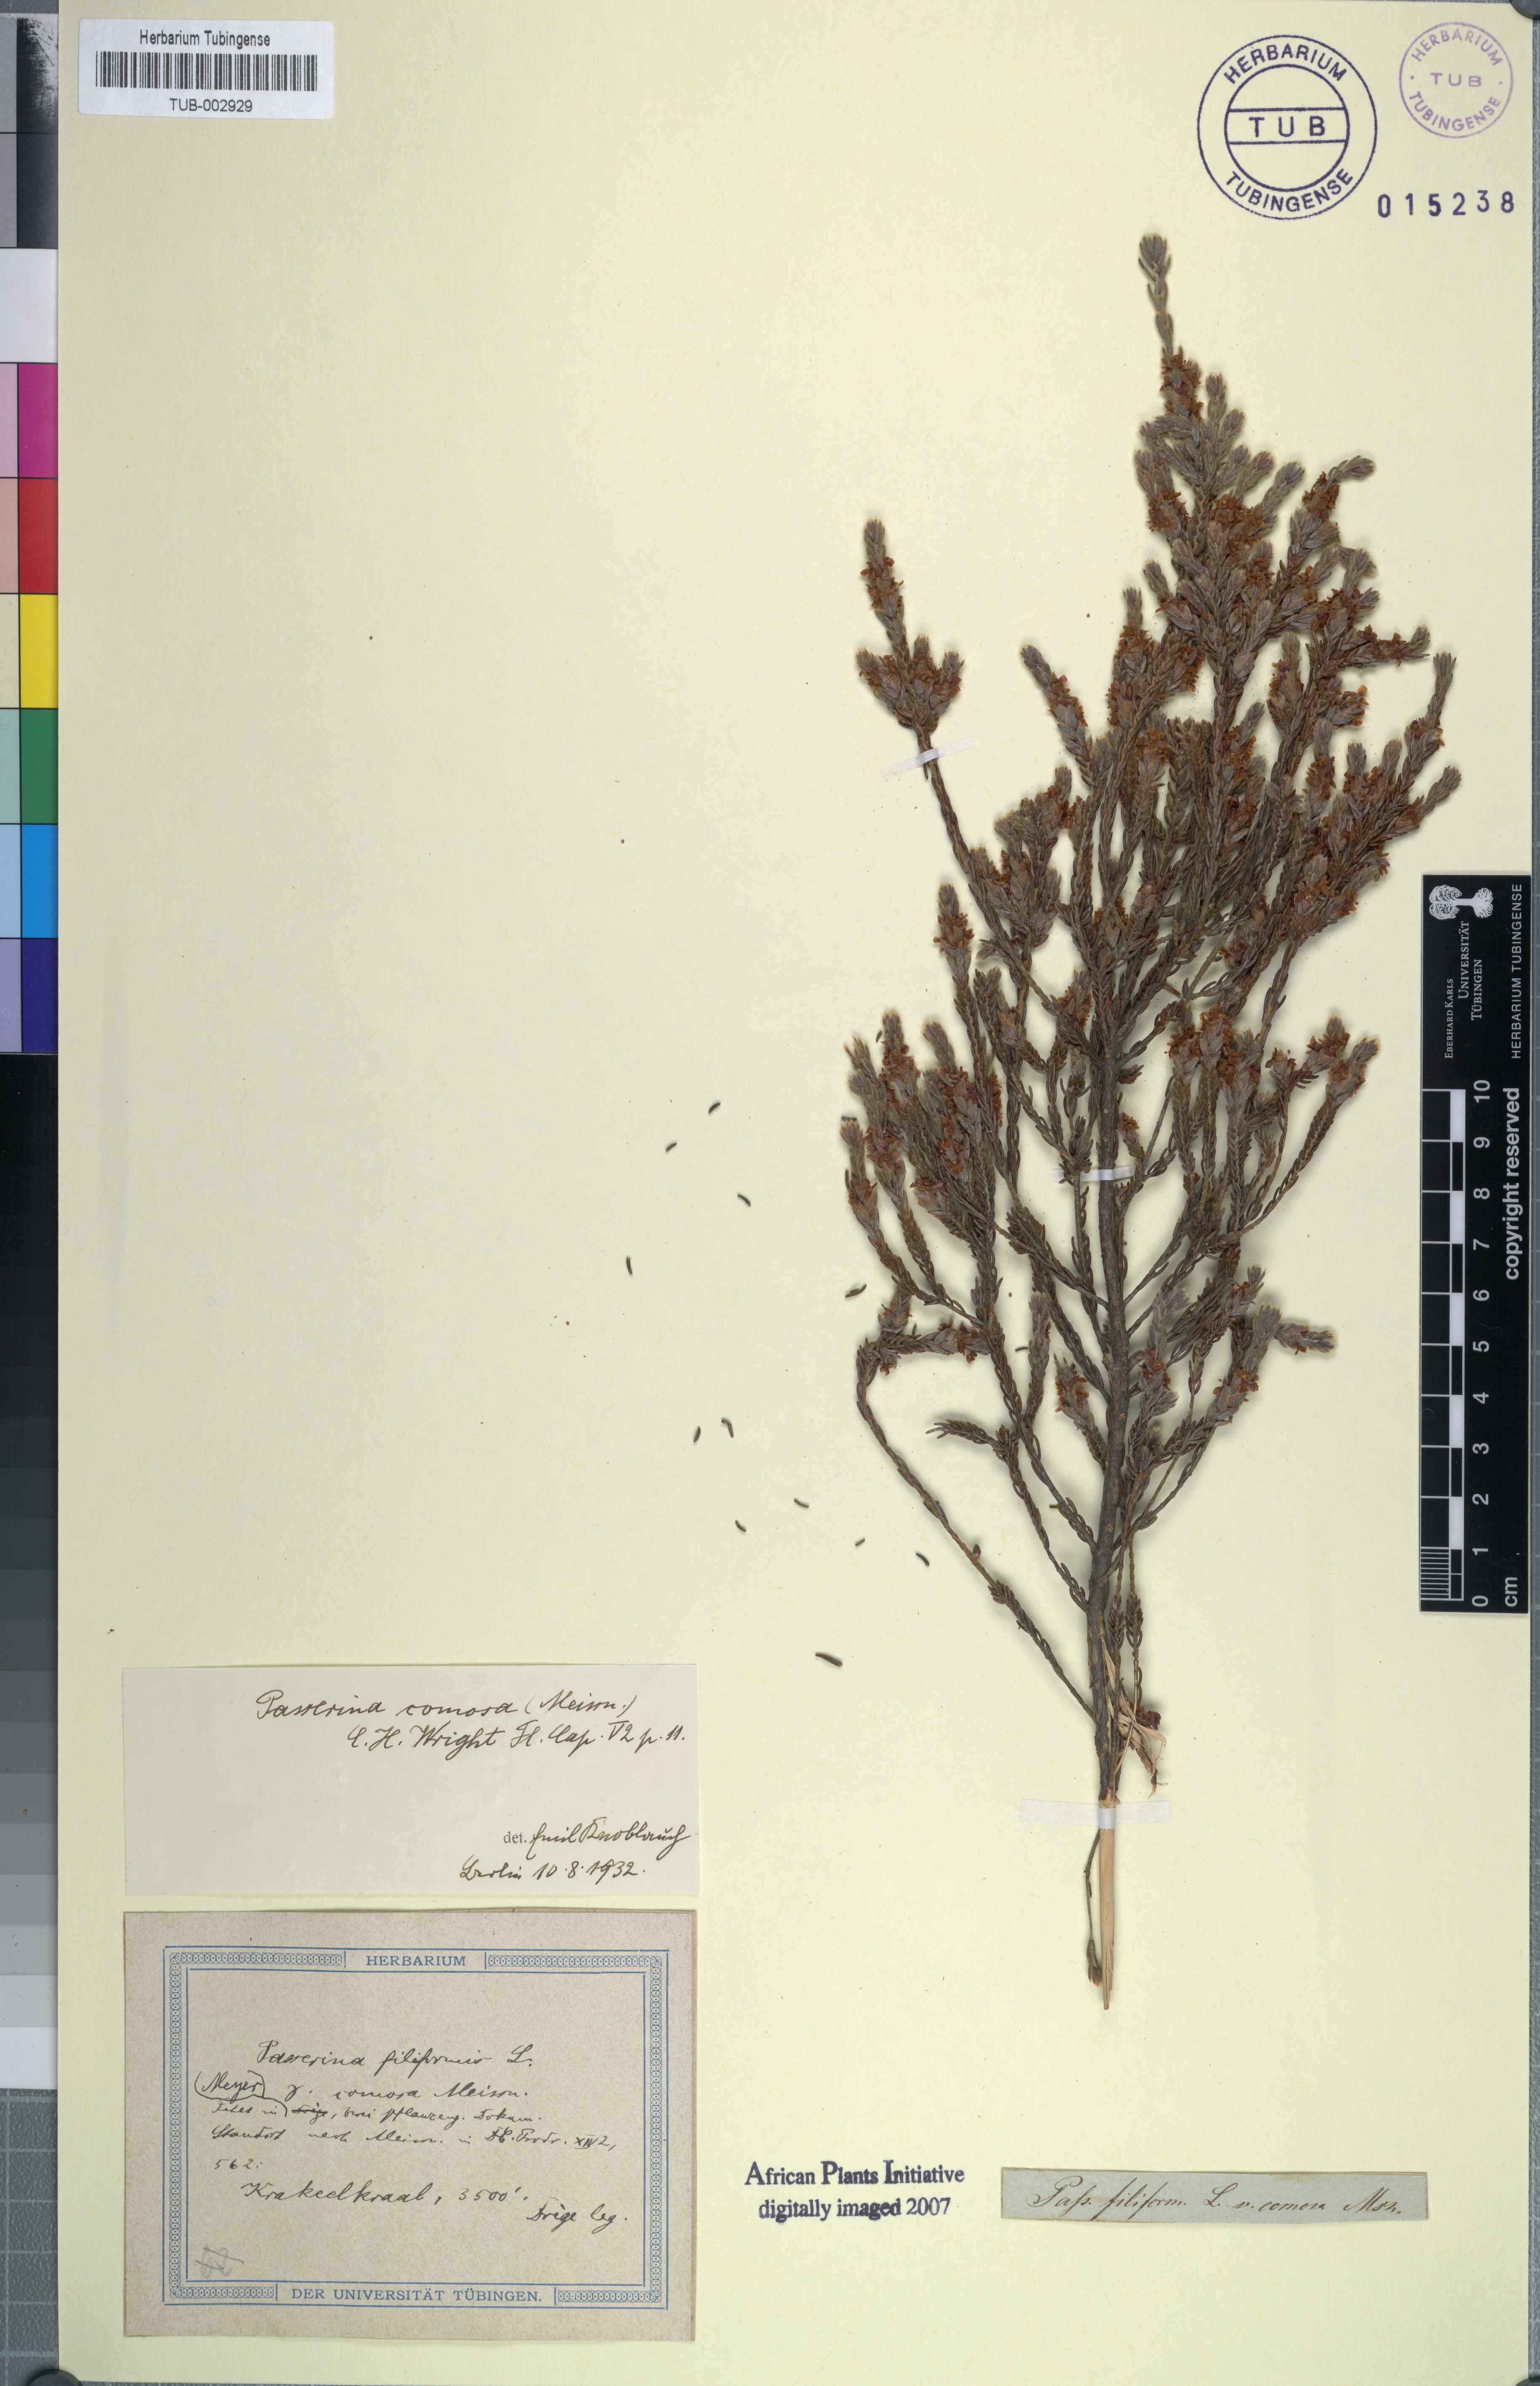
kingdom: Plantae
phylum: Tracheophyta
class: Magnoliopsida
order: Malvales
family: Thymelaeaceae
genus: Passerina
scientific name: Passerina filiformis
